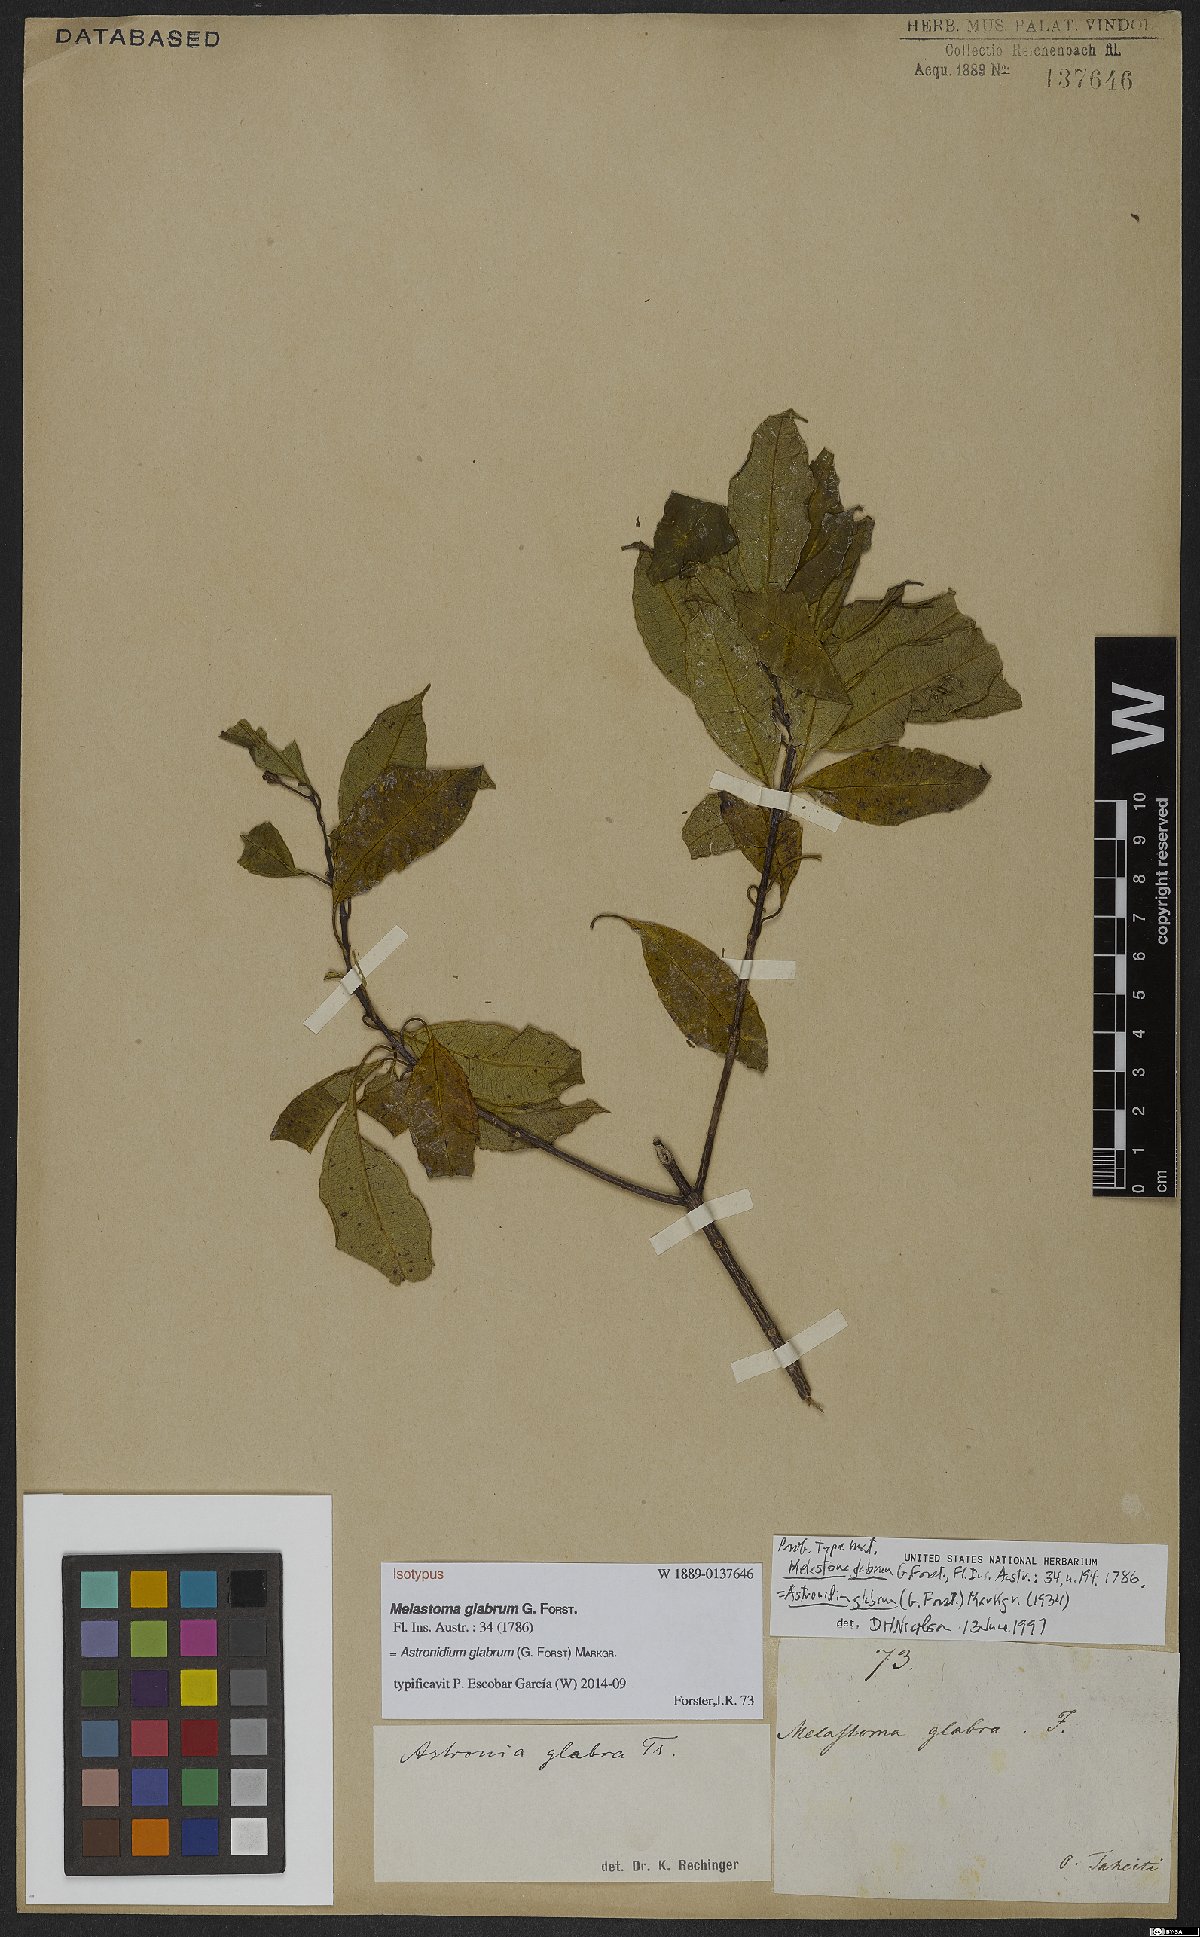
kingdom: Plantae
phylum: Tracheophyta
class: Magnoliopsida
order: Myrtales
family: Melastomataceae
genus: Astronidium
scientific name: Astronidium glabrum
